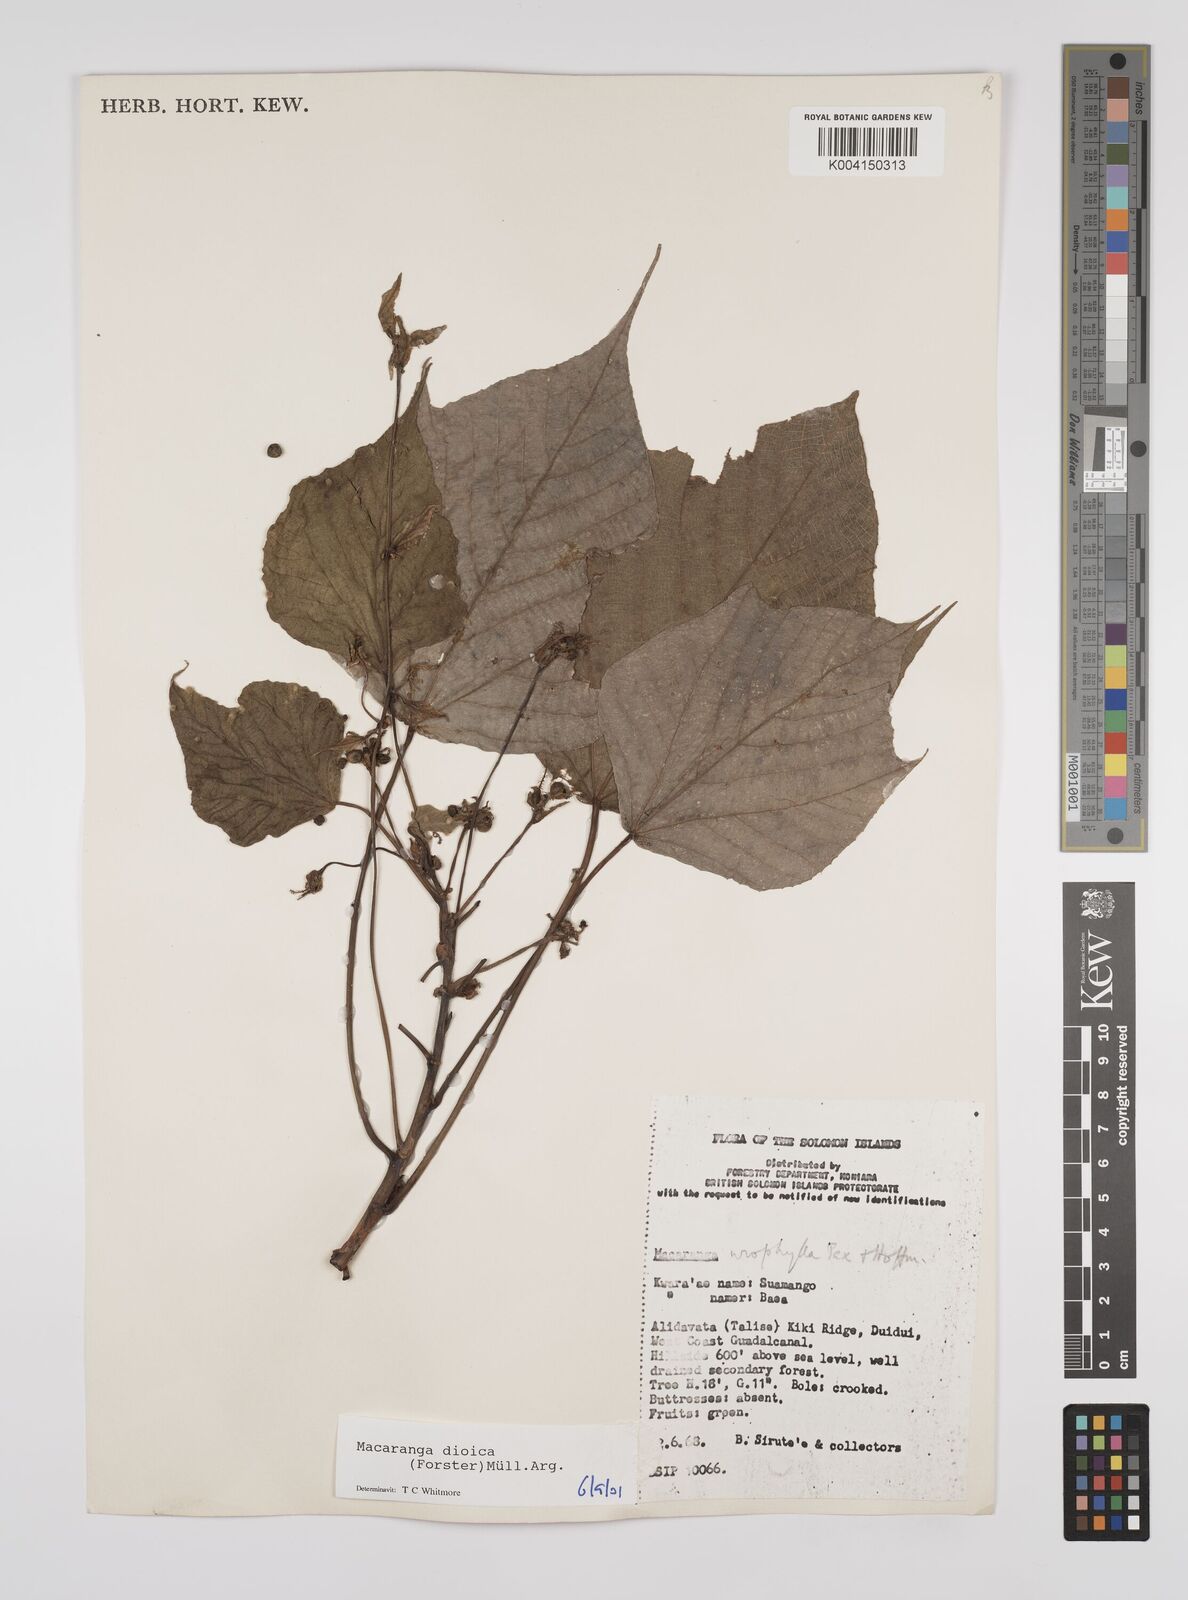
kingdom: Plantae
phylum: Tracheophyta
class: Magnoliopsida
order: Malpighiales
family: Euphorbiaceae
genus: Macaranga
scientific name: Macaranga dioica
